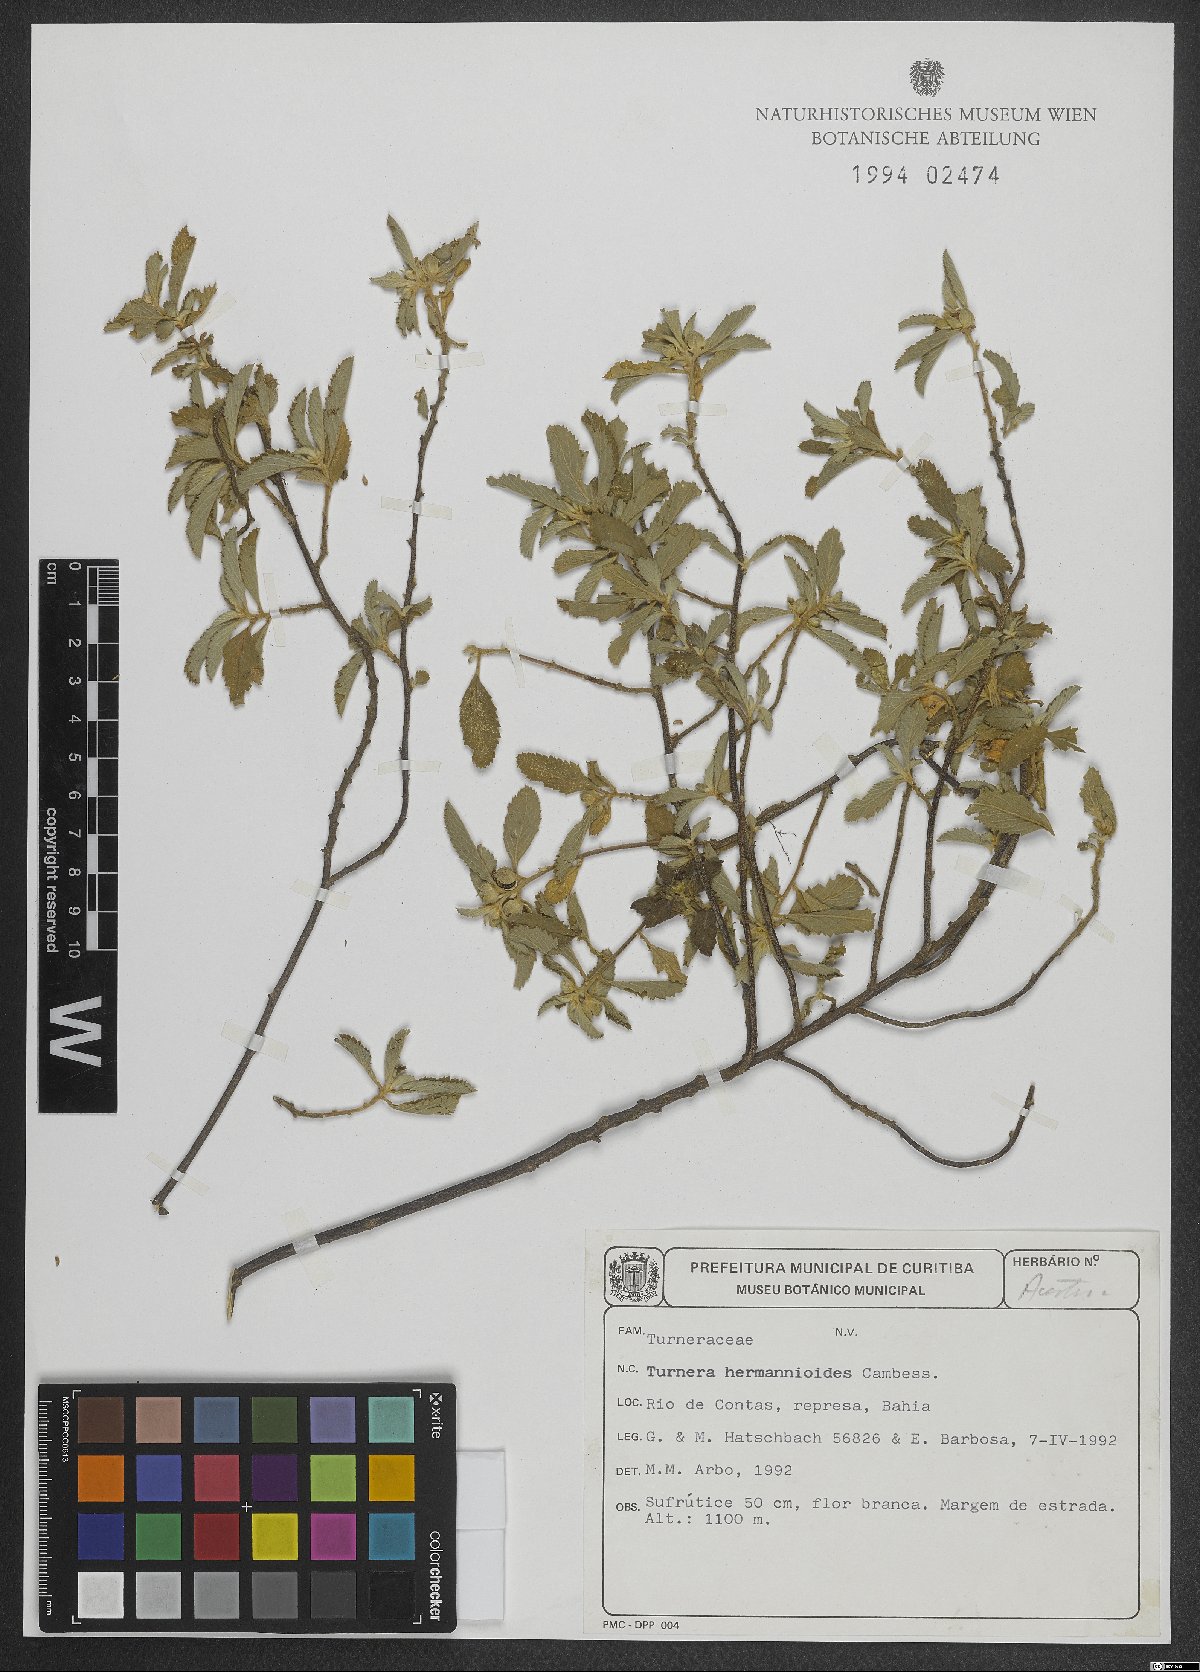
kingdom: Plantae
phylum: Tracheophyta
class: Magnoliopsida
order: Malpighiales
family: Turneraceae
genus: Turnera
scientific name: Turnera hermannioides
